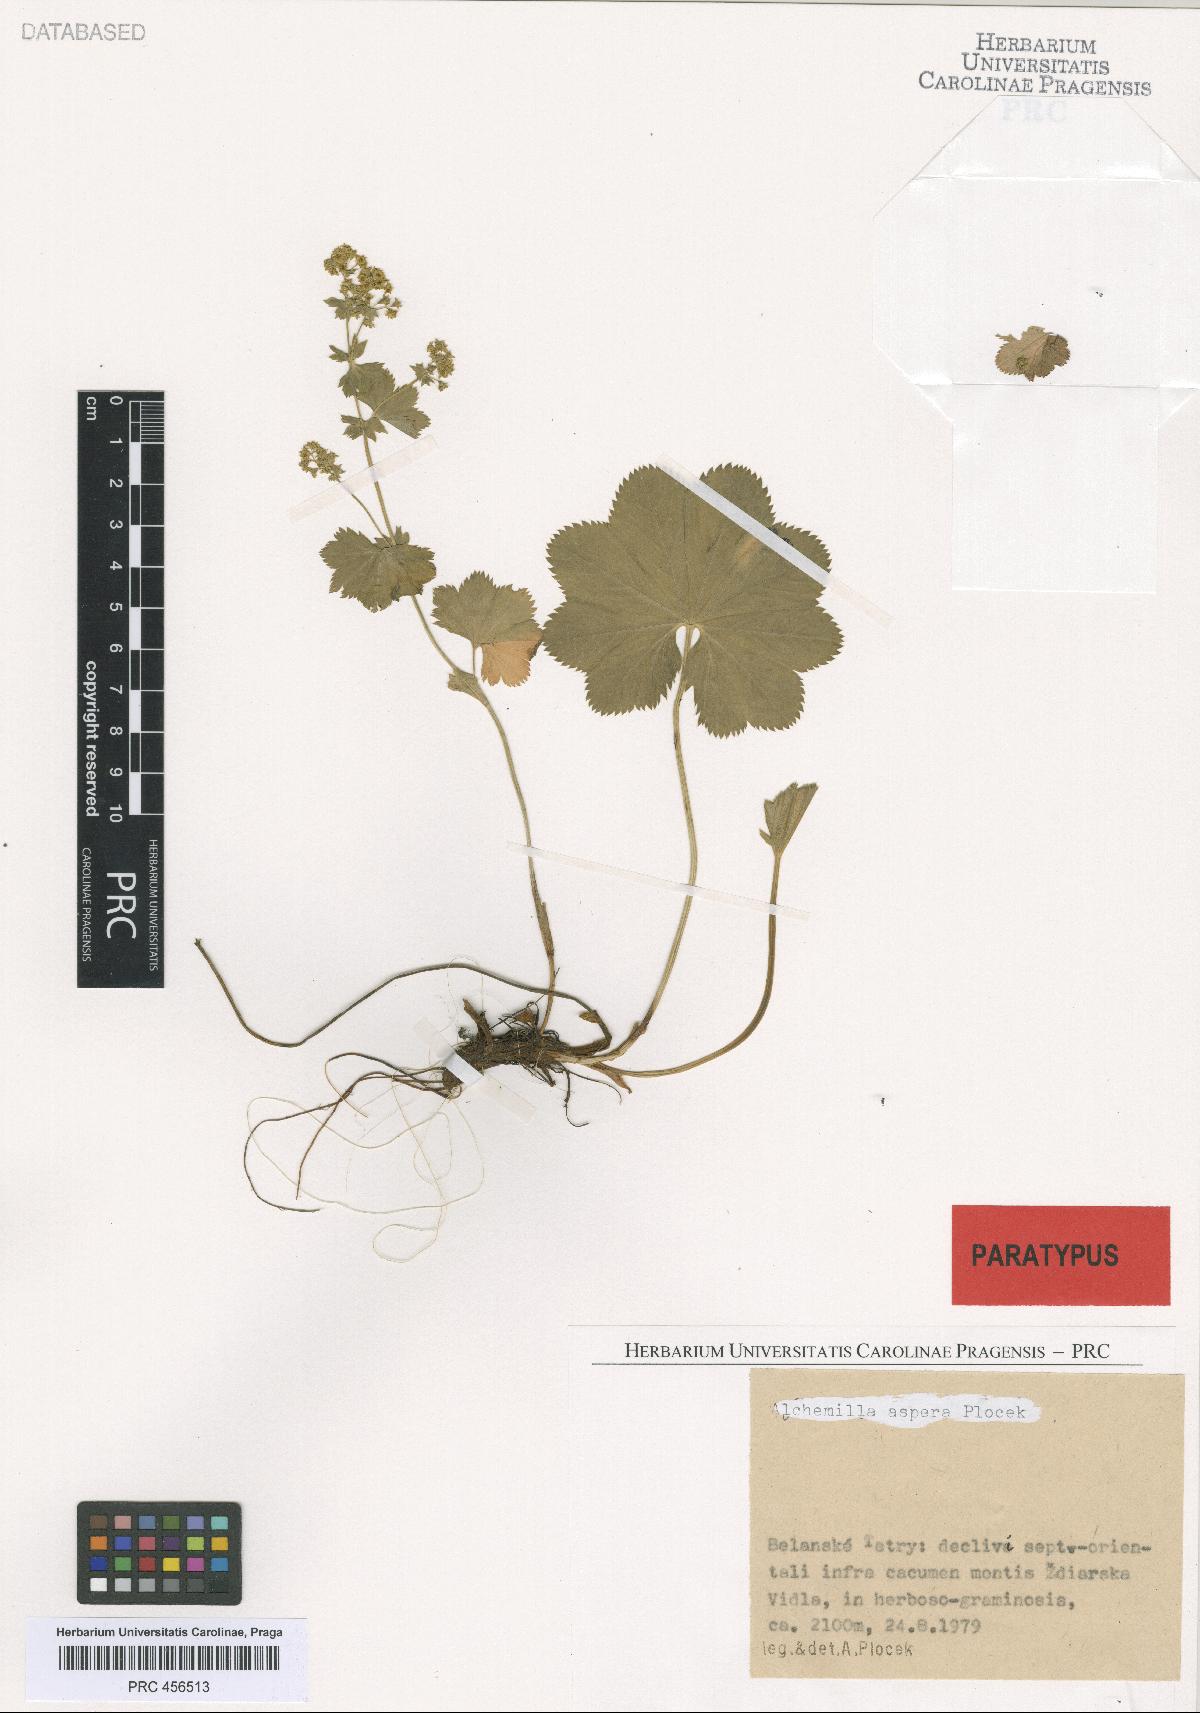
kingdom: Plantae
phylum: Tracheophyta
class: Magnoliopsida
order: Rosales
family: Rosaceae
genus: Alchemilla
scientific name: Alchemilla aspera
